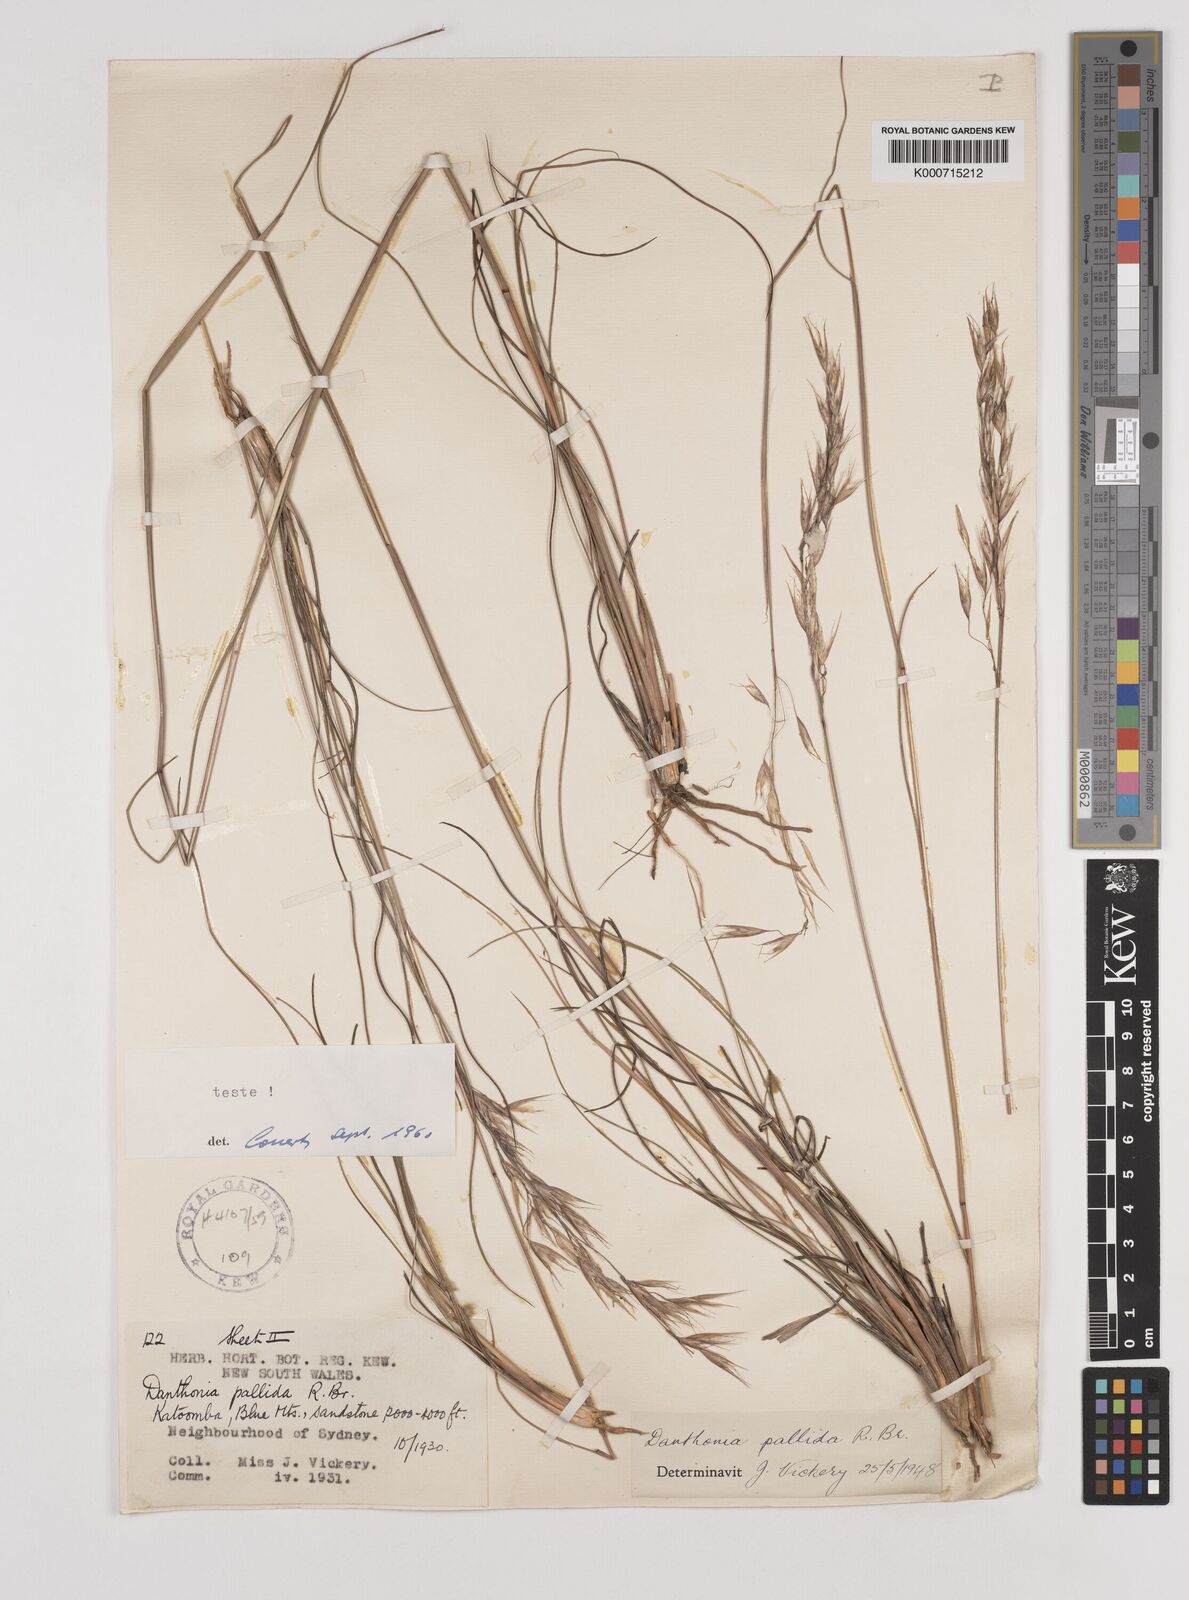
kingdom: Plantae
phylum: Tracheophyta
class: Liliopsida
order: Poales
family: Poaceae
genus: Rytidosperma
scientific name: Rytidosperma
